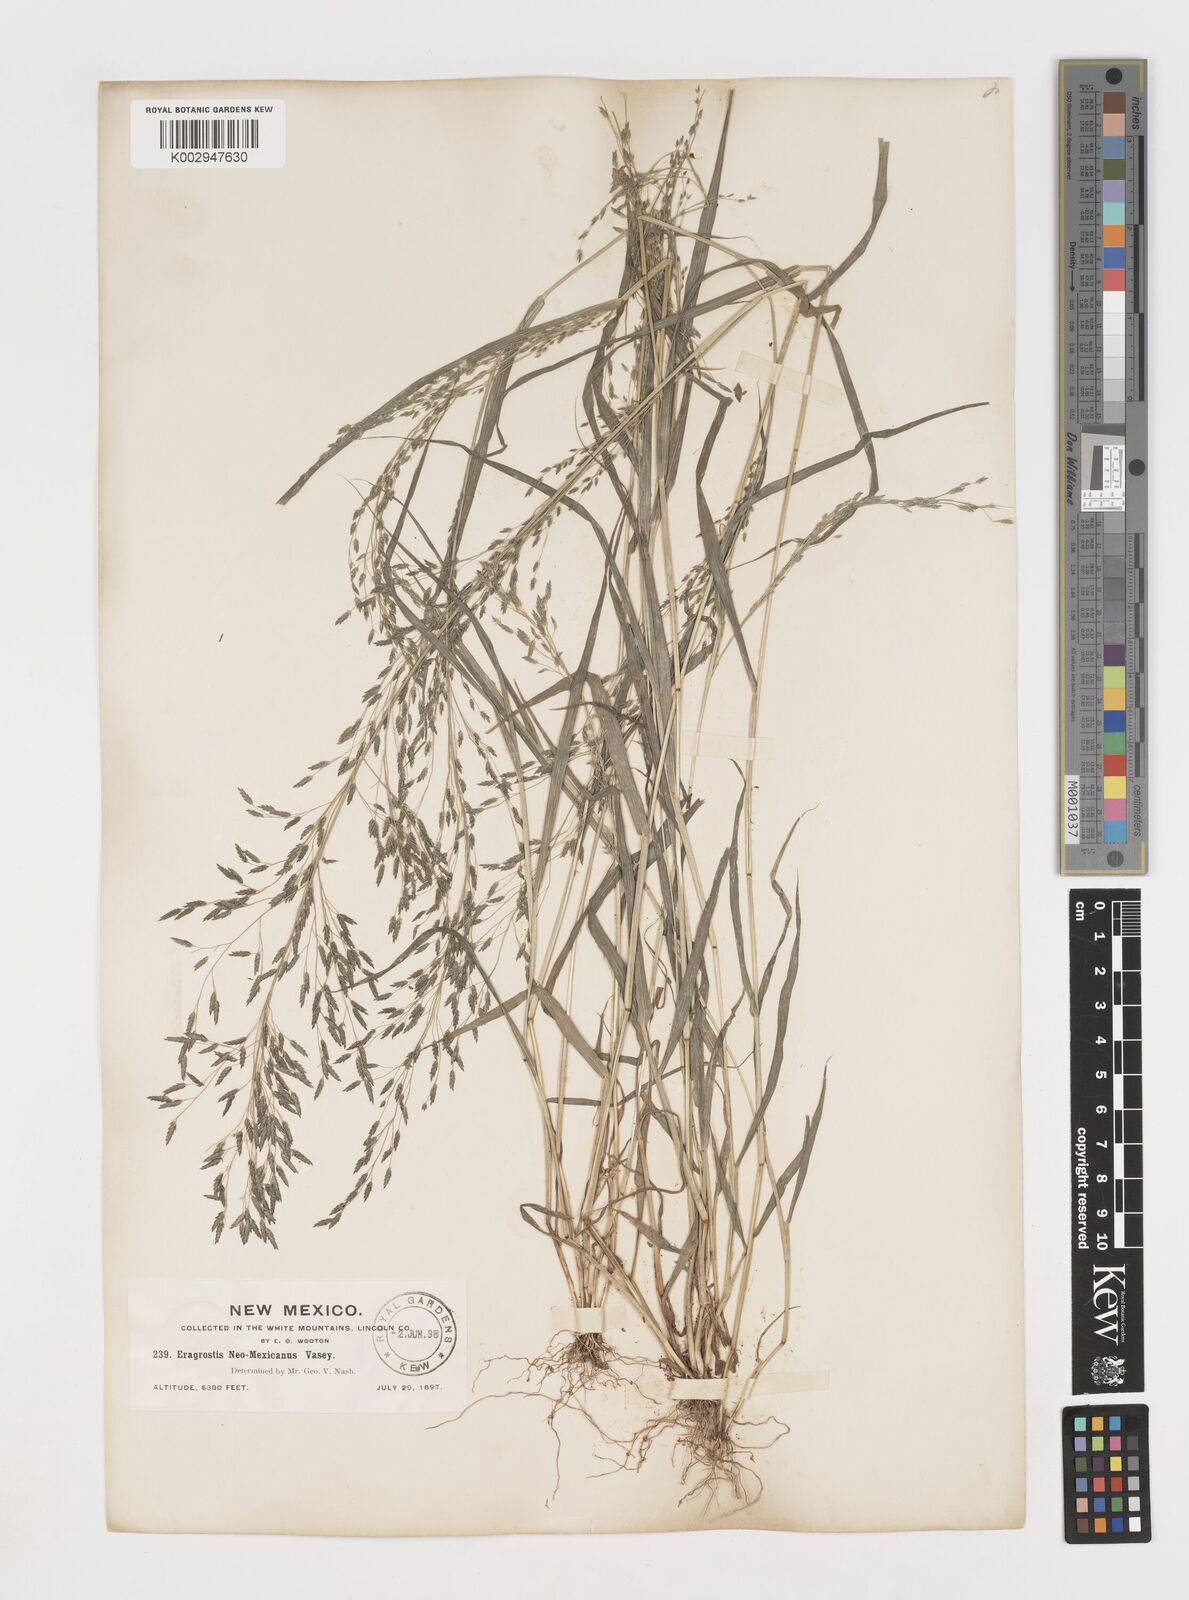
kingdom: Plantae
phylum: Tracheophyta
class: Liliopsida
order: Poales
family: Poaceae
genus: Eragrostis
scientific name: Eragrostis mexicana
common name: Mexican love grass
